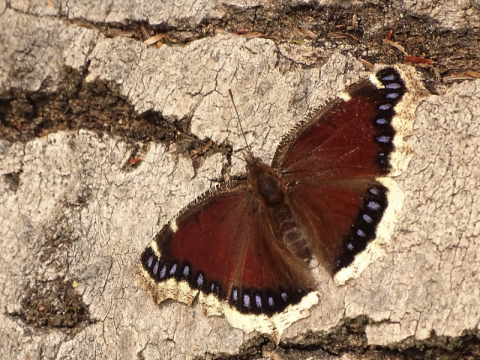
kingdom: Animalia
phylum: Arthropoda
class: Insecta
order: Lepidoptera
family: Nymphalidae
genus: Nymphalis
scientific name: Nymphalis antiopa
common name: Mourning Cloak
